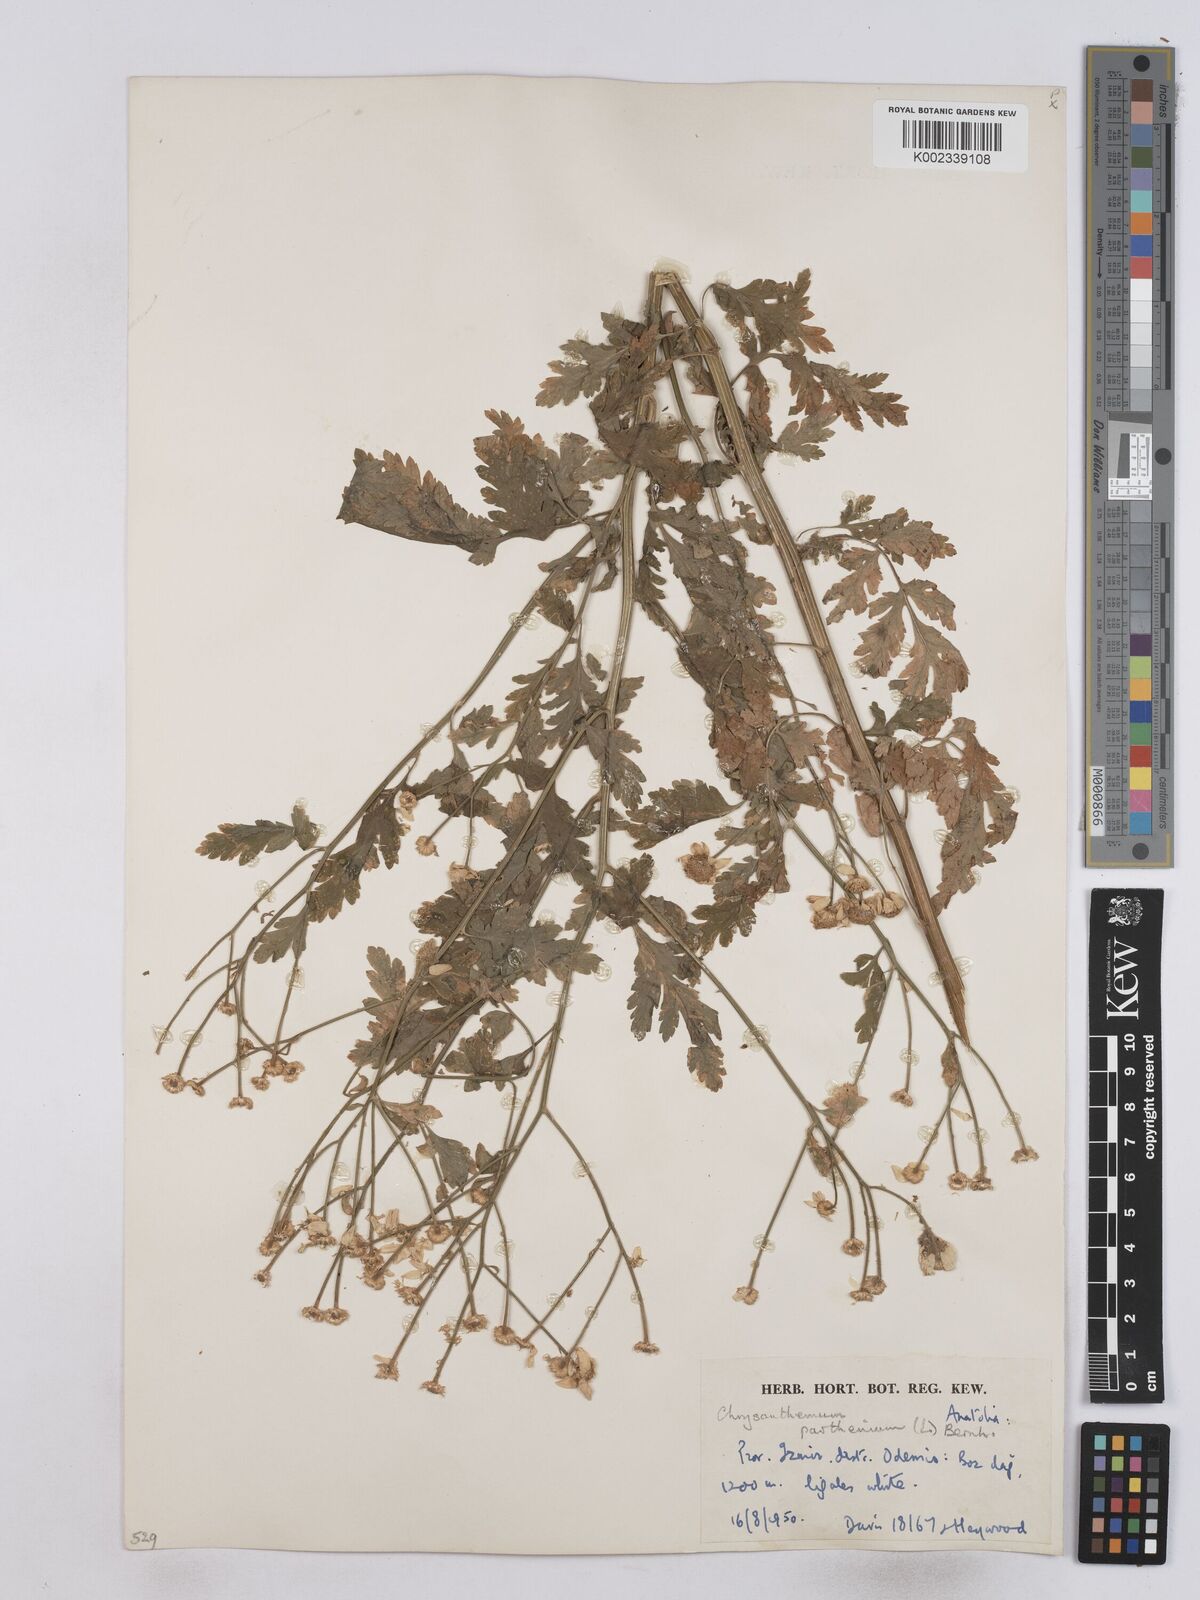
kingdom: Plantae
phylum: Tracheophyta
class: Magnoliopsida
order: Asterales
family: Asteraceae
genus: Tanacetum
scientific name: Tanacetum parthenium
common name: Feverfew
